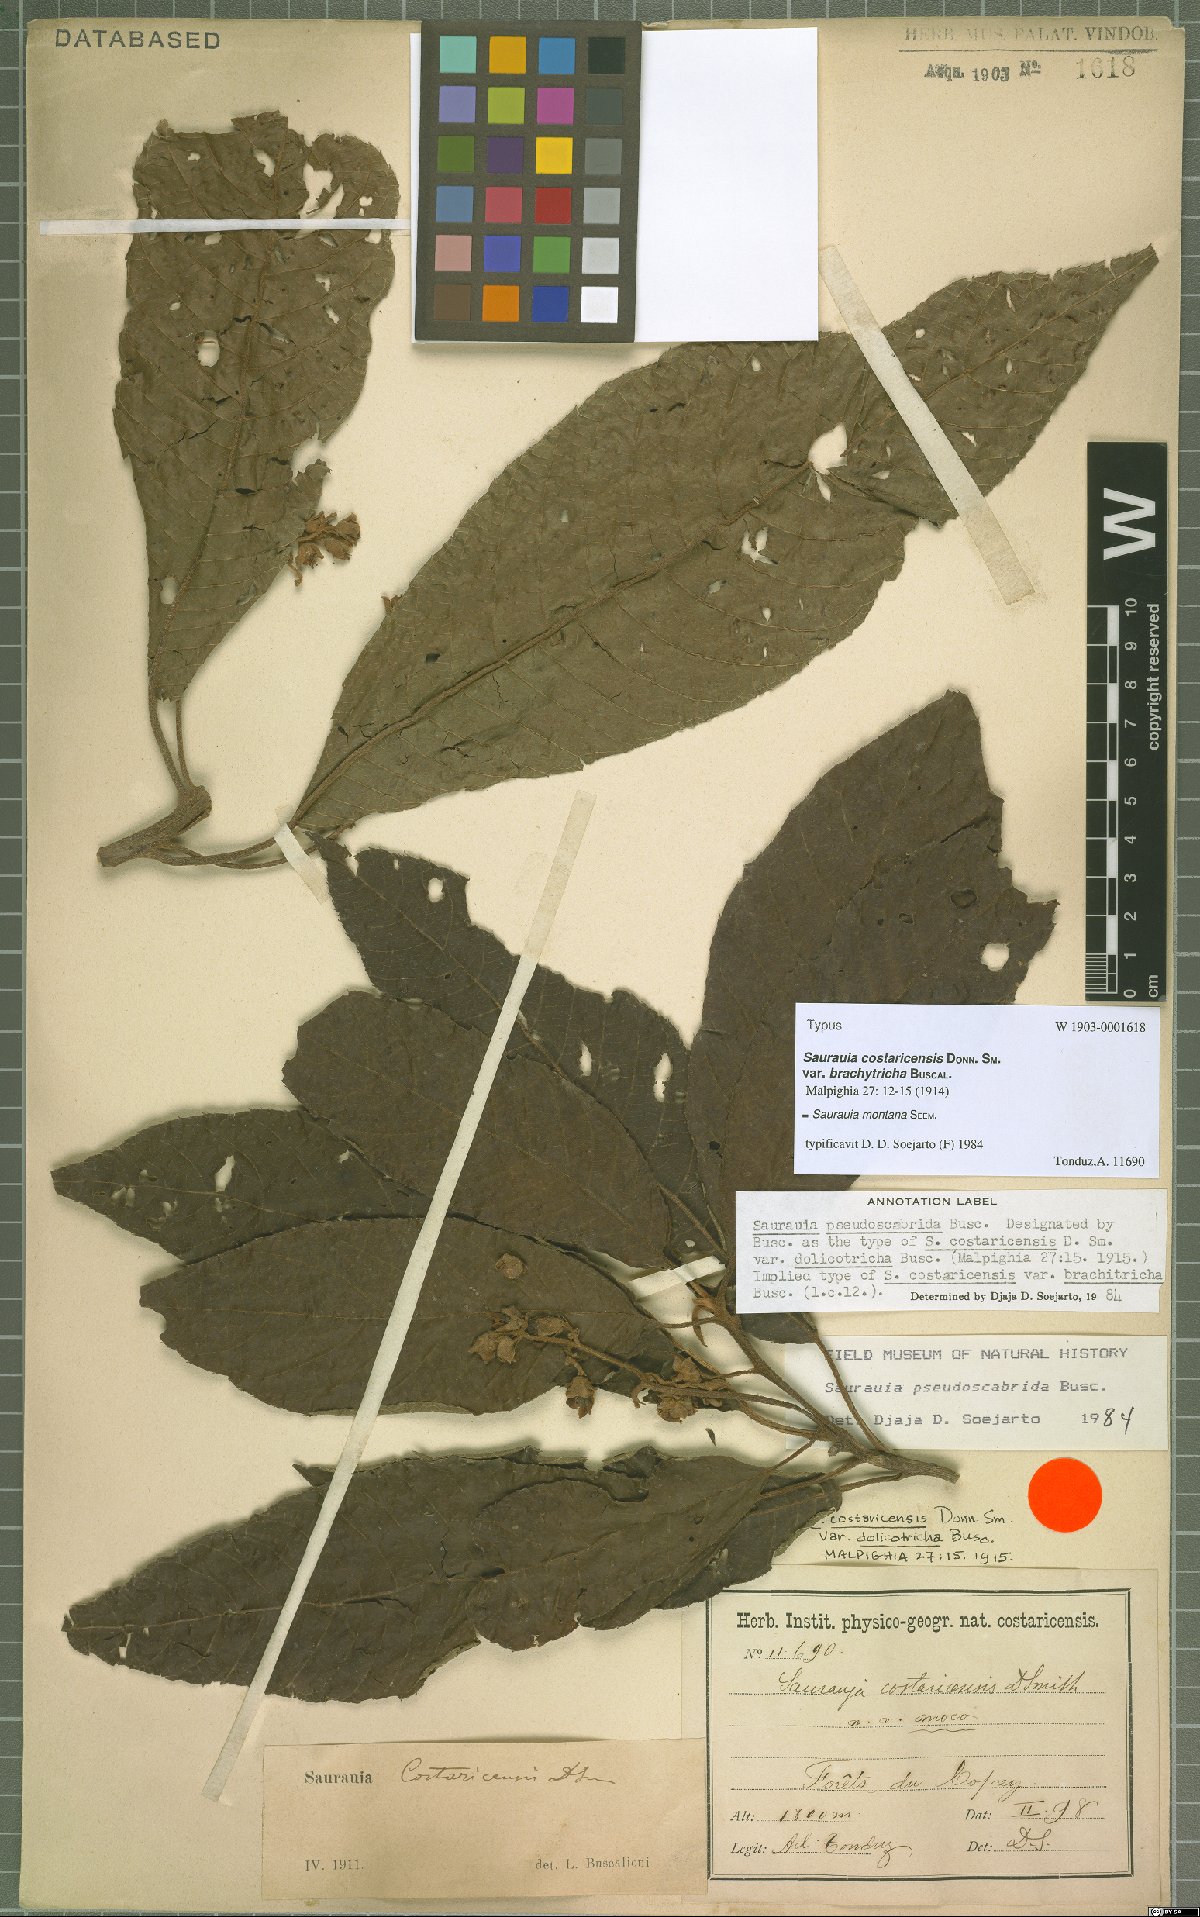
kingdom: Plantae
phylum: Tracheophyta
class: Magnoliopsida
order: Ericales
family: Actinidiaceae
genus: Saurauia
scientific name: Saurauia montana
